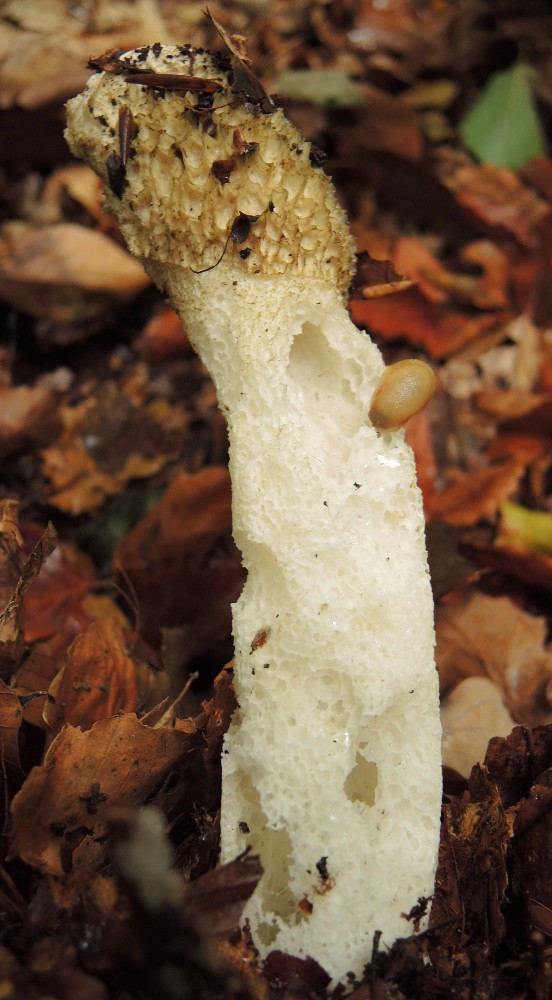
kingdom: Fungi
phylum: Basidiomycota
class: Agaricomycetes
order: Phallales
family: Phallaceae
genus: Phallus
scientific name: Phallus impudicus
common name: almindelig stinksvamp
